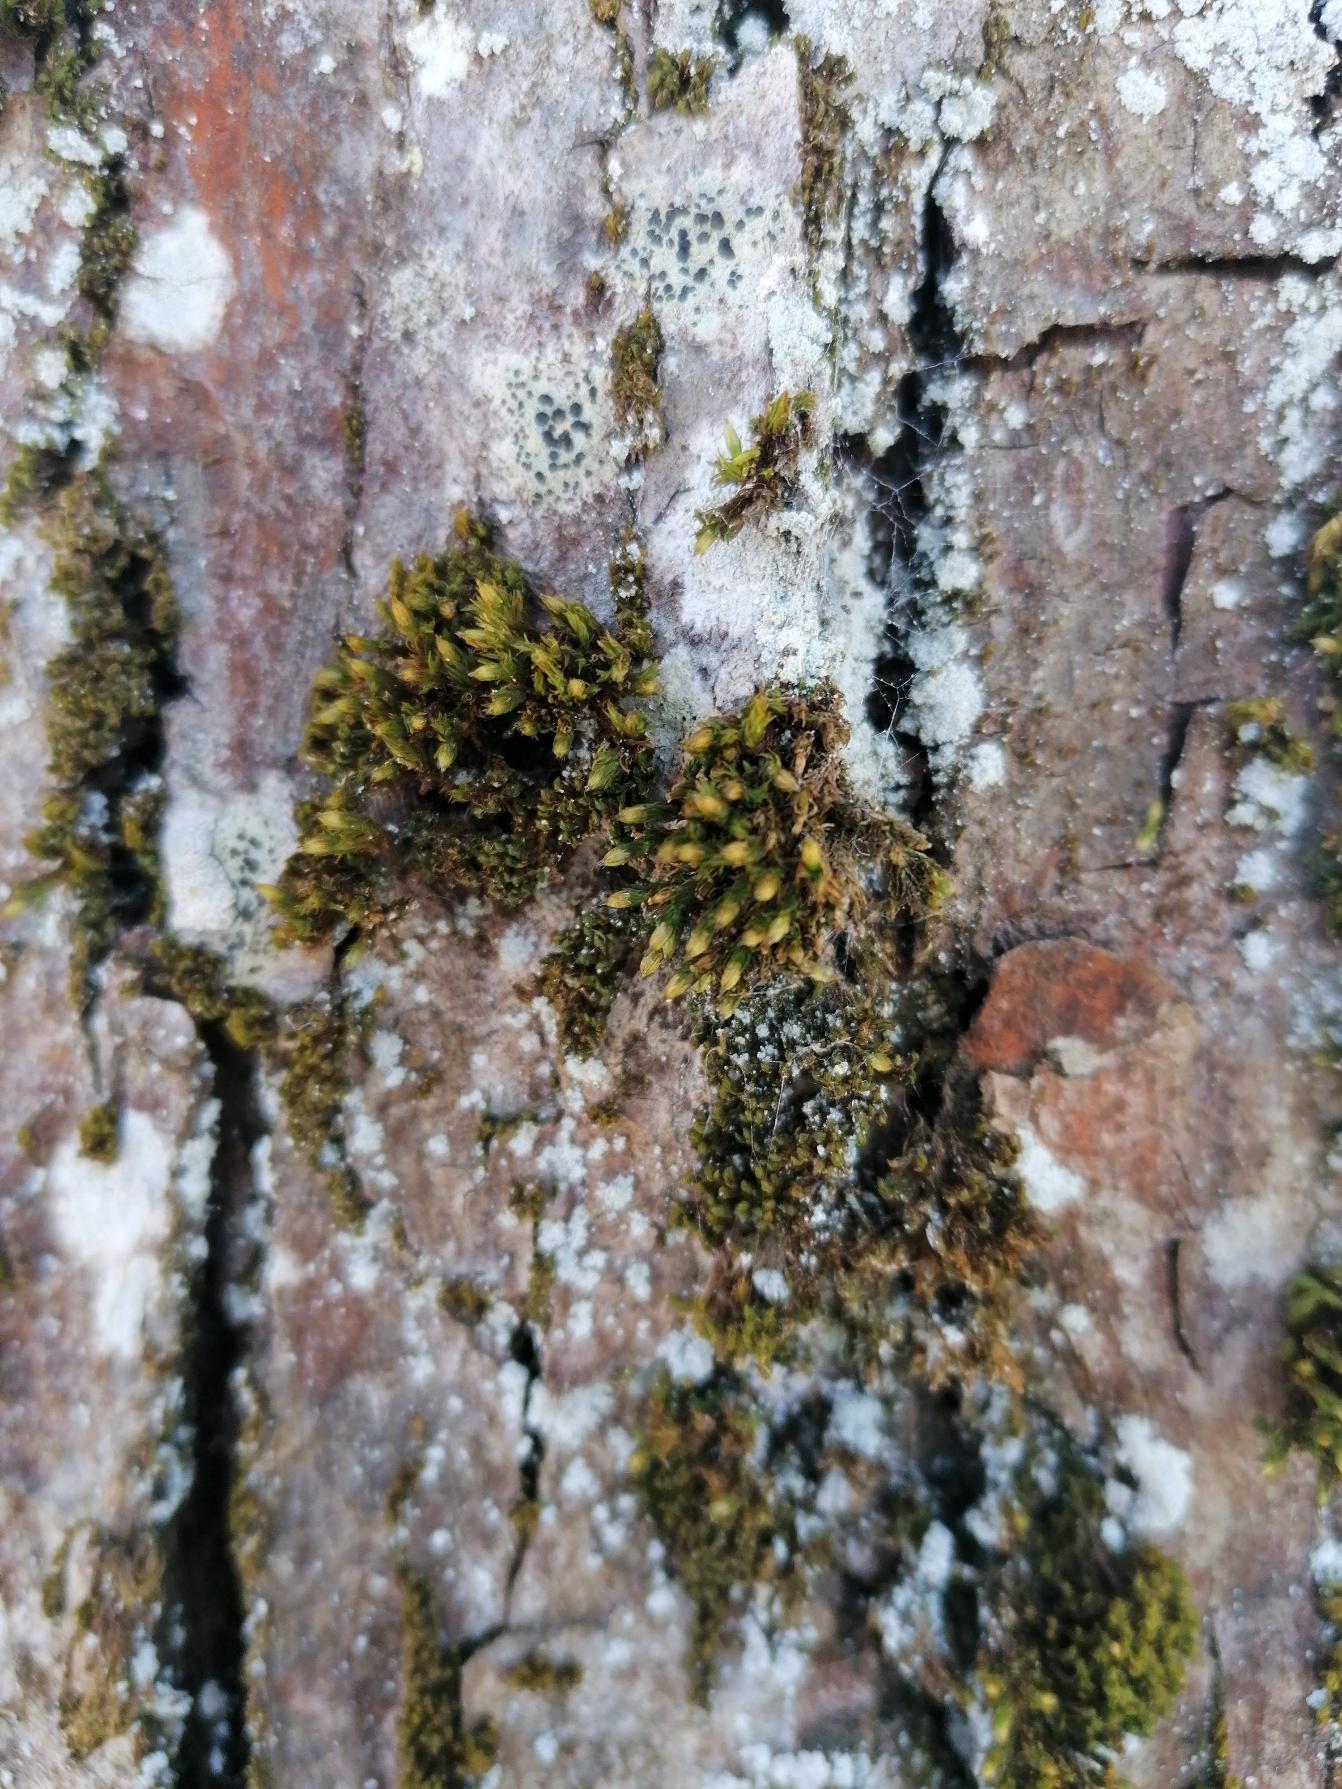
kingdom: Plantae
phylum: Bryophyta
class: Bryopsida
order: Orthotrichales
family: Orthotrichaceae
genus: Lewinskya
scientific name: Lewinskya affinis
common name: Almindelig furehætte
